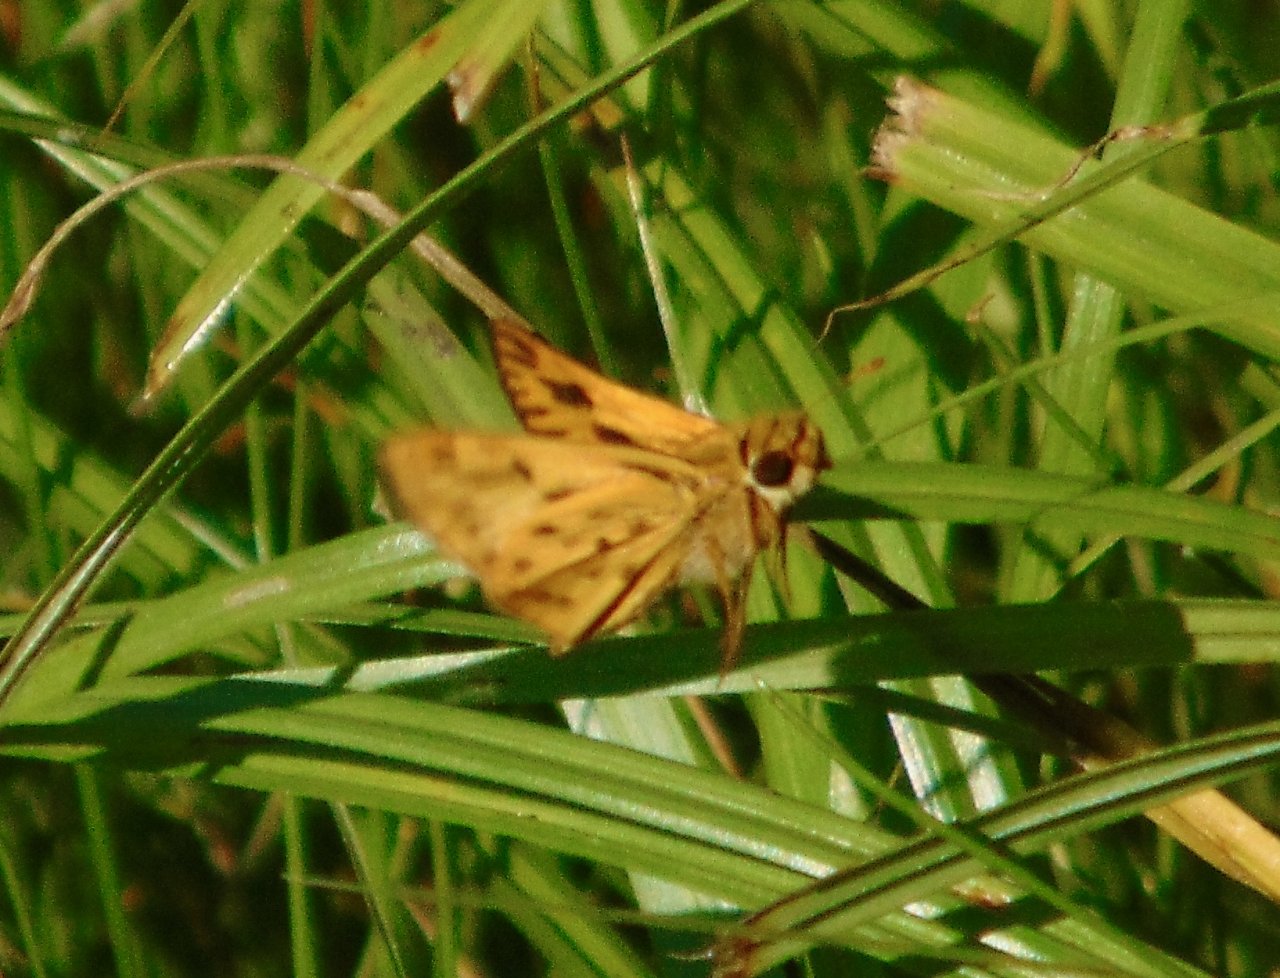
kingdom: Animalia
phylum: Arthropoda
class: Insecta
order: Lepidoptera
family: Hesperiidae
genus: Hylephila
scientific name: Hylephila phyleus
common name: Fiery Skipper
